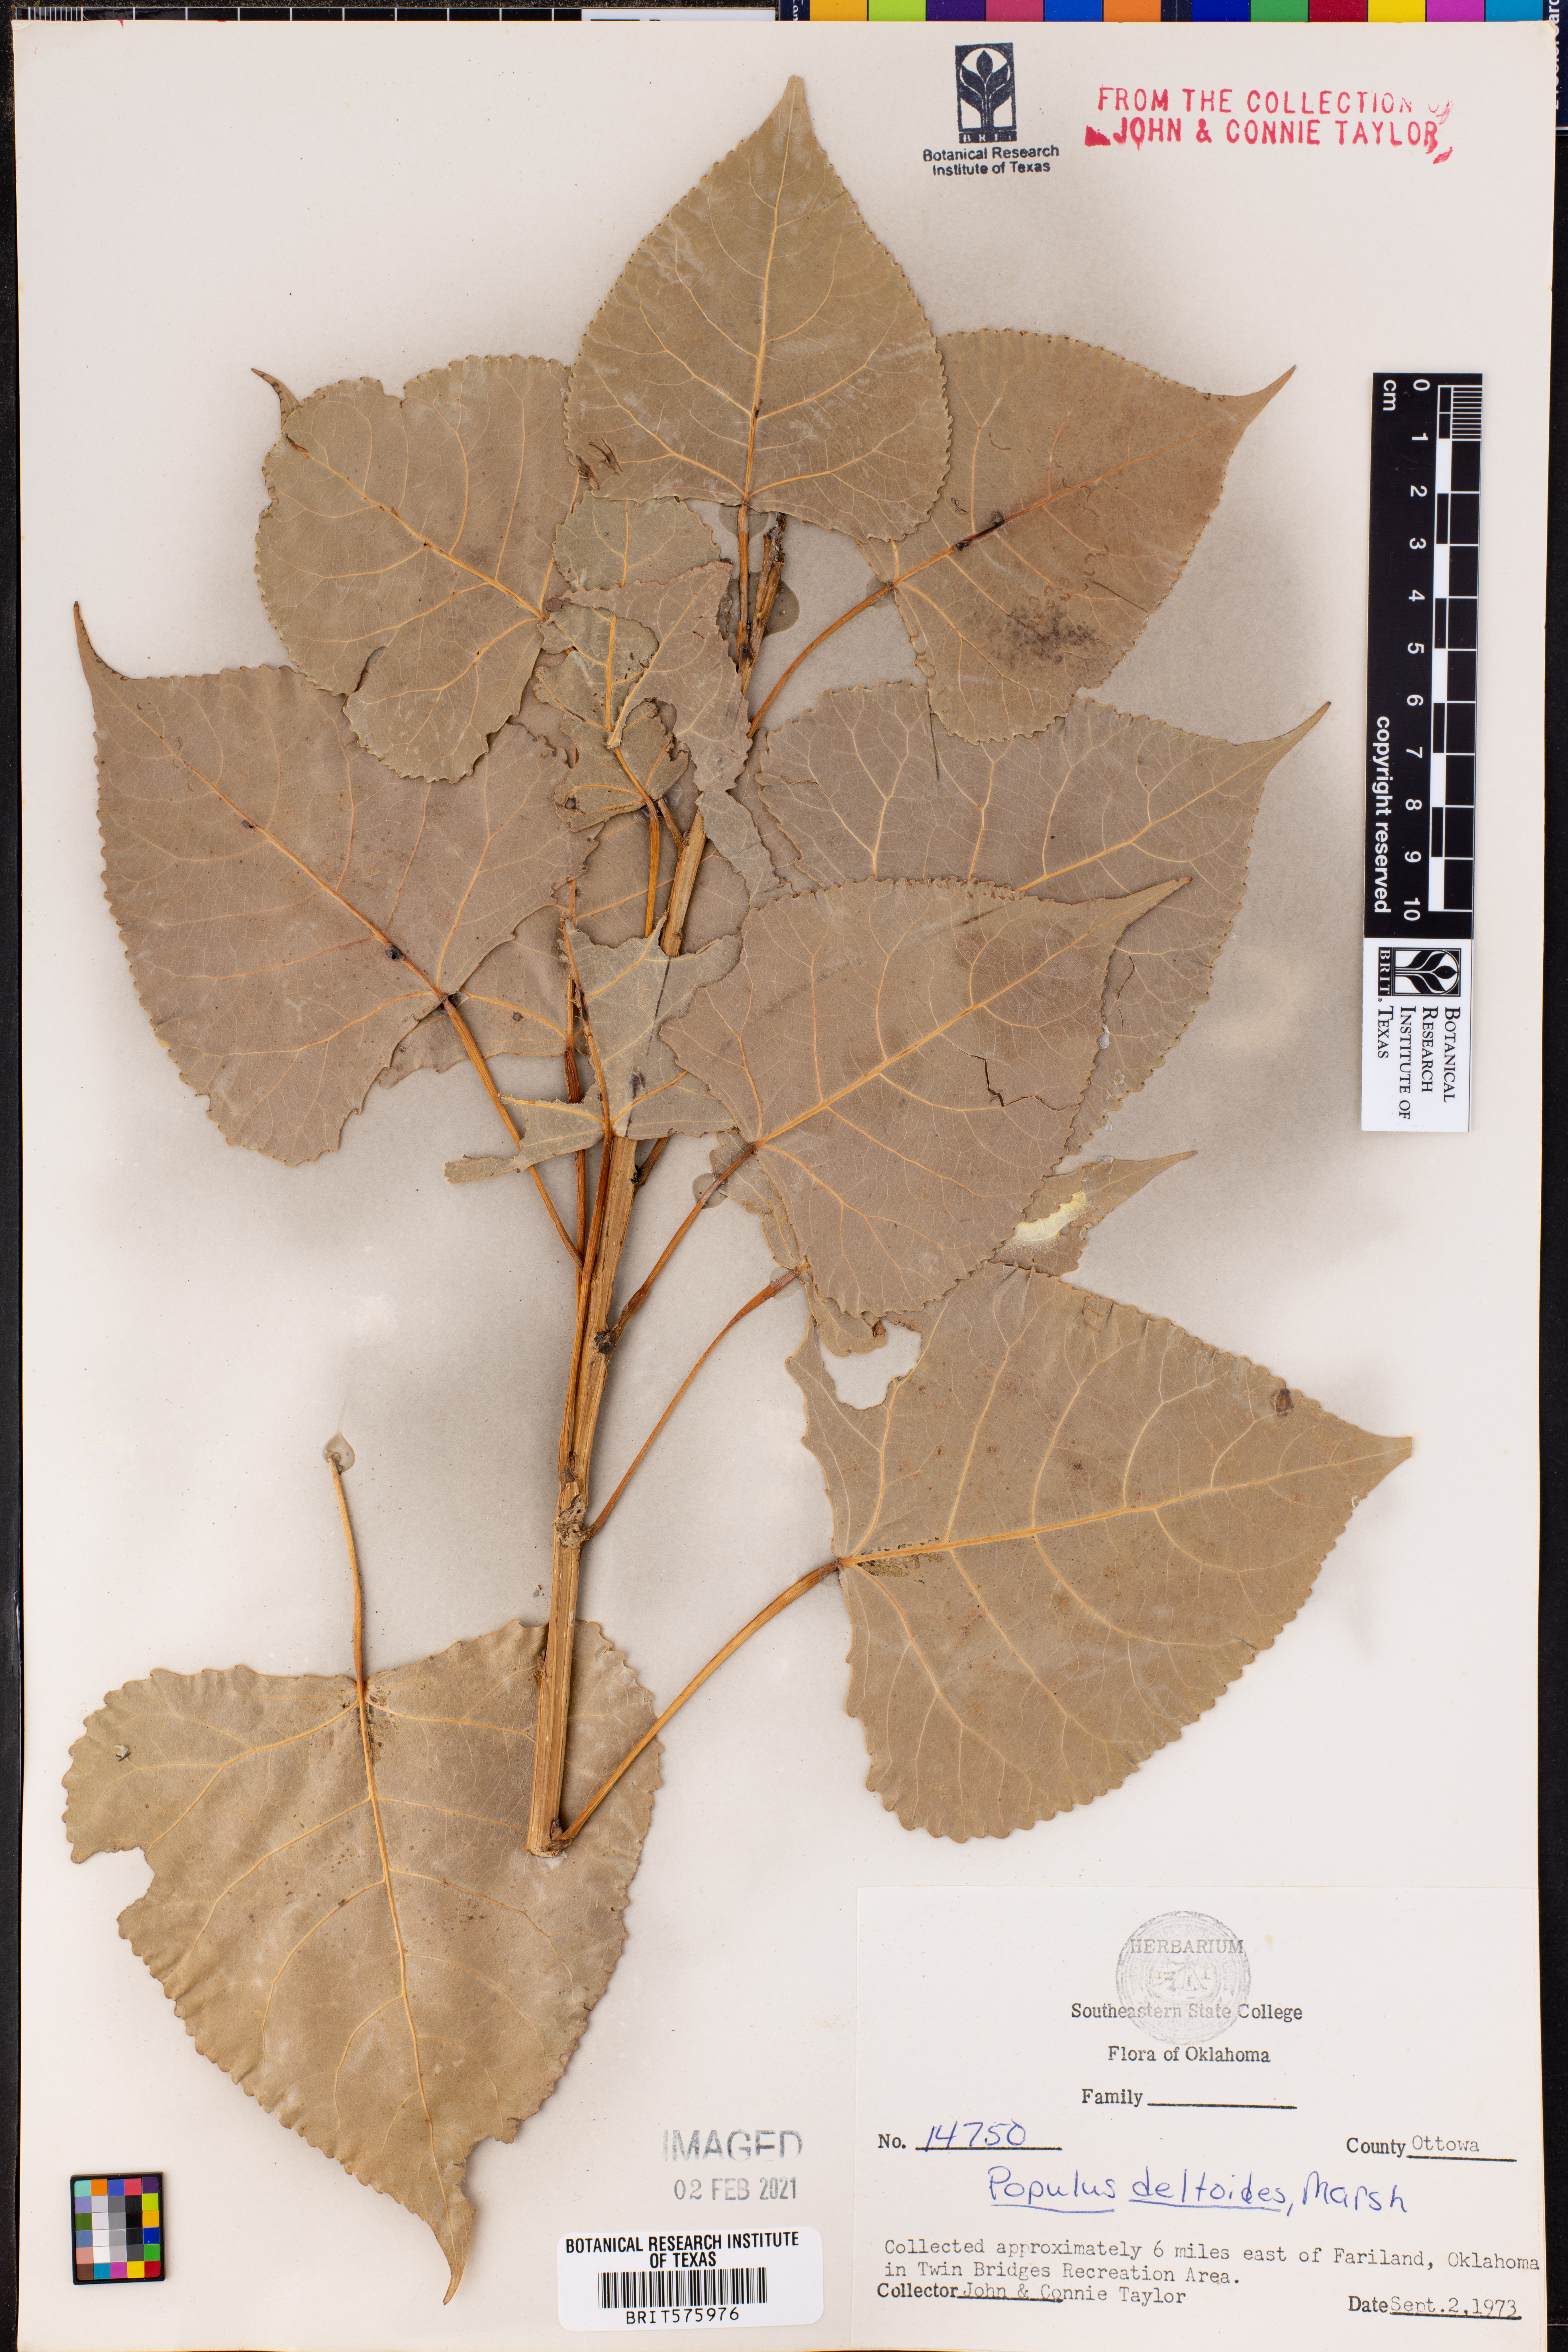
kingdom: Plantae
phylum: Tracheophyta
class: Magnoliopsida
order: Malpighiales
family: Salicaceae
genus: Populus
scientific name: Populus deltoides
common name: Eastern cottonwood
